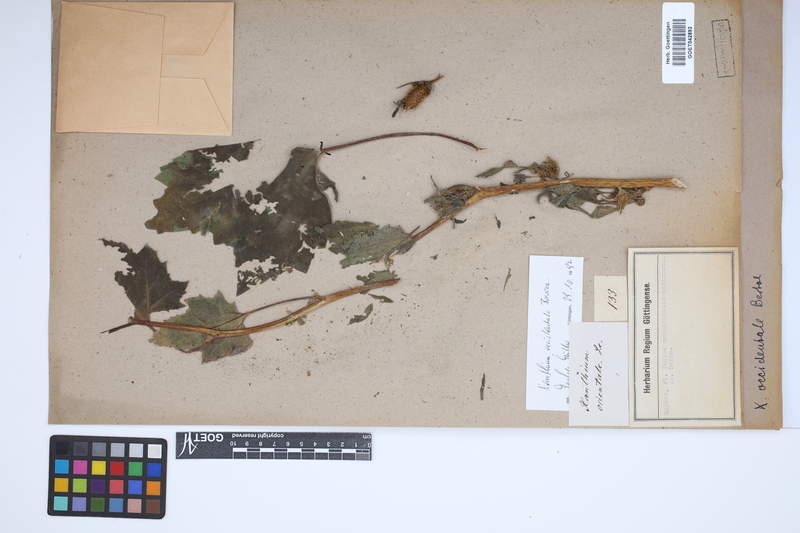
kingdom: Plantae
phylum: Tracheophyta
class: Magnoliopsida
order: Asterales
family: Asteraceae
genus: Xanthium
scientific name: Xanthium occidentale
